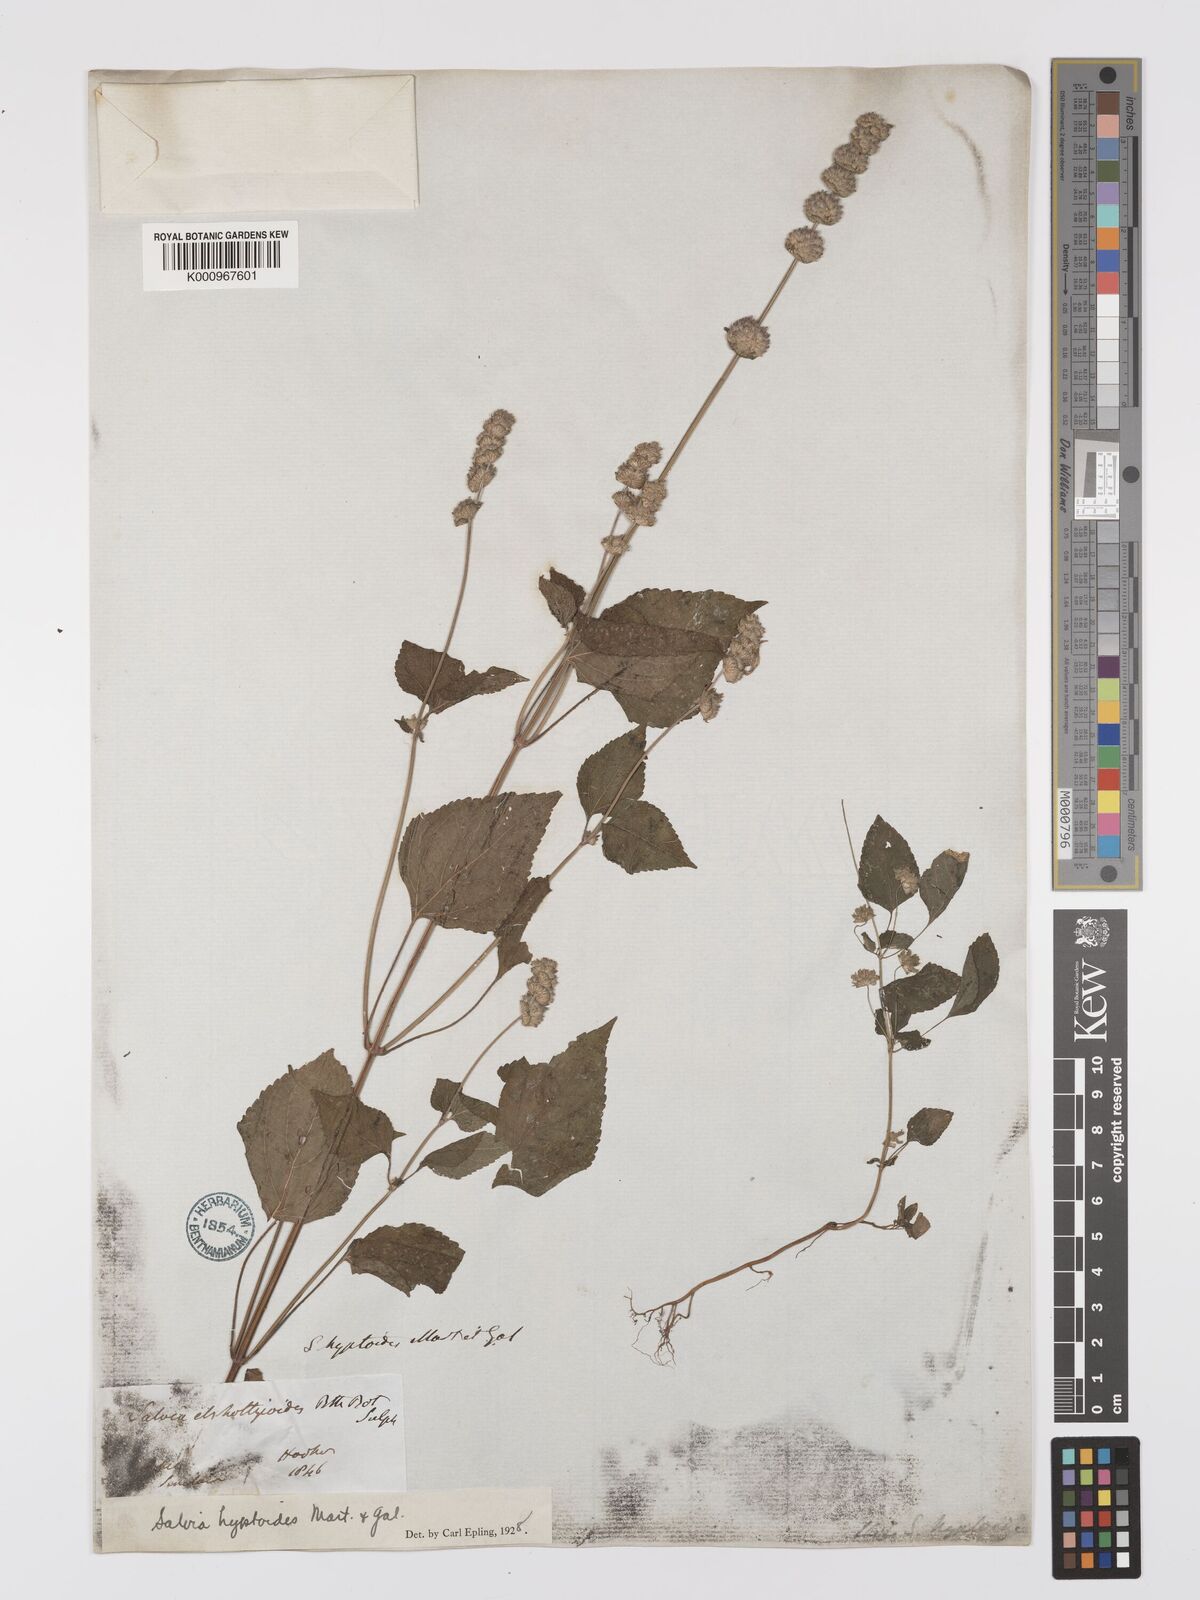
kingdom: Plantae
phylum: Tracheophyta
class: Magnoliopsida
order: Lamiales
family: Lamiaceae
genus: Salvia
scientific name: Salvia lasiocephala
